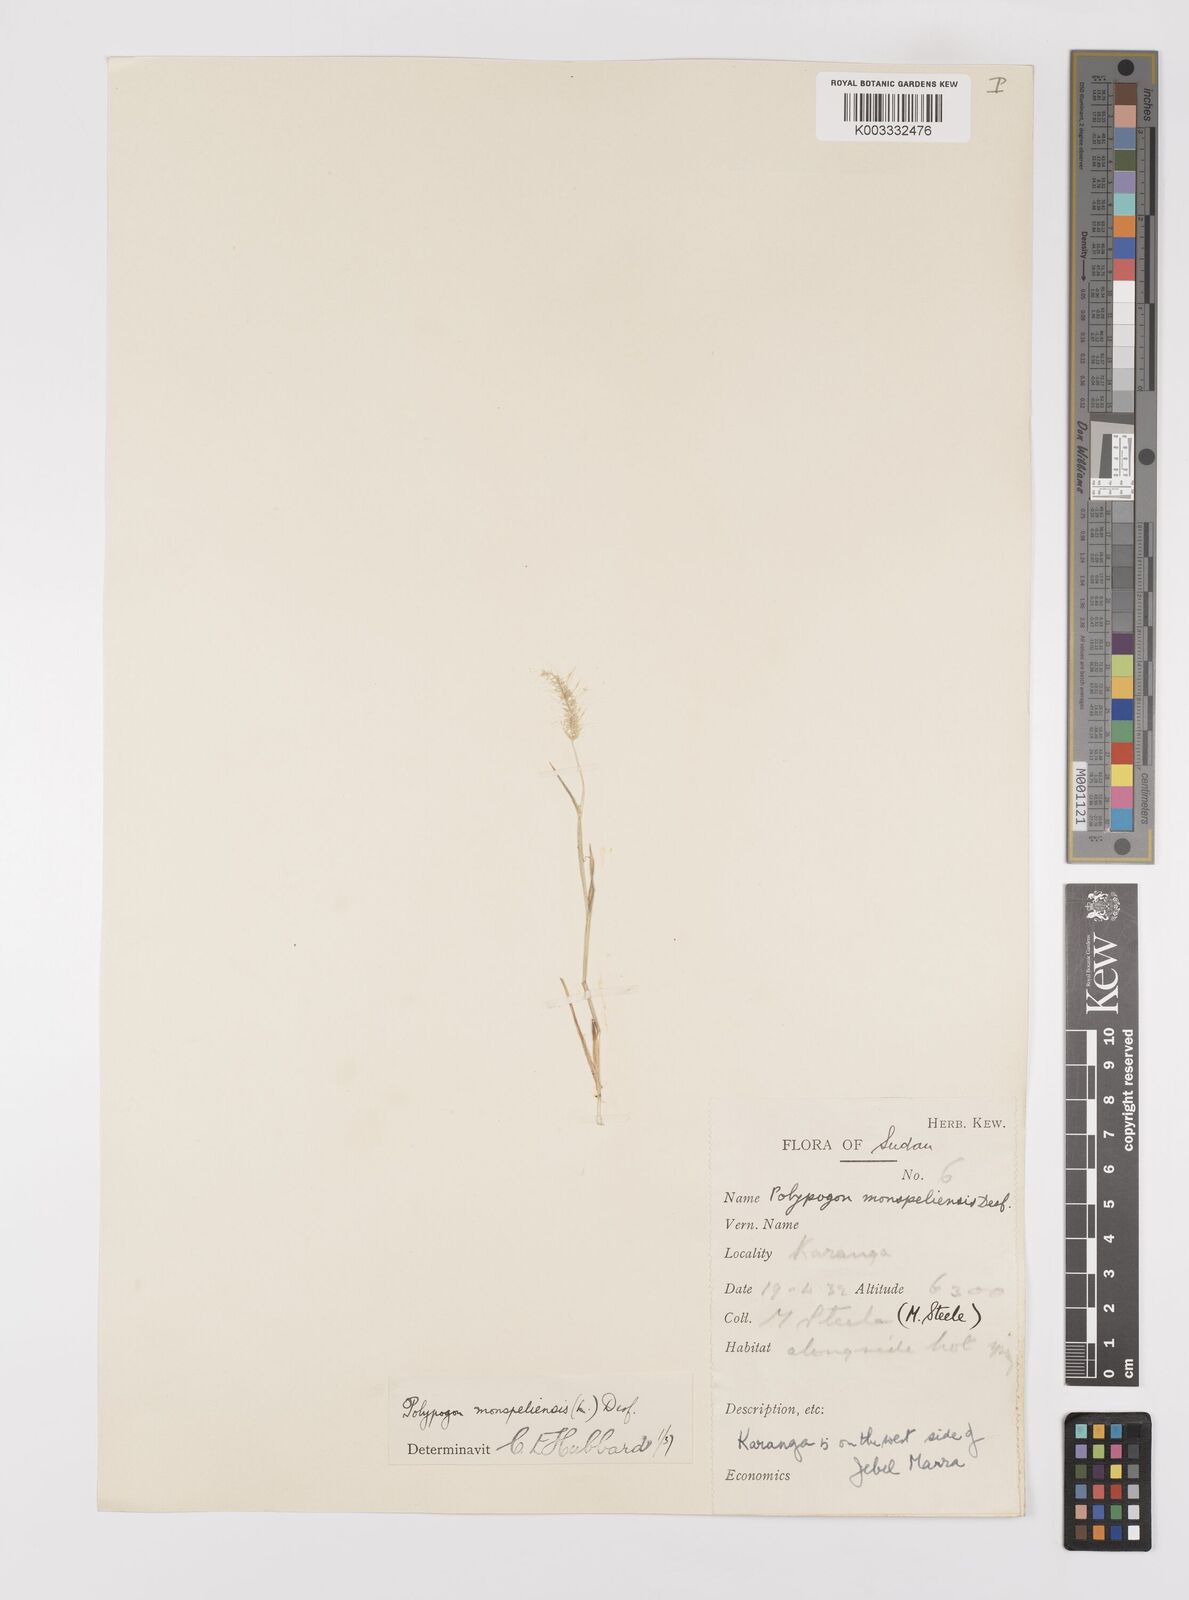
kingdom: Plantae
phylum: Tracheophyta
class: Liliopsida
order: Poales
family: Poaceae
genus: Polypogon
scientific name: Polypogon monspeliensis
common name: Annual rabbitsfoot grass
